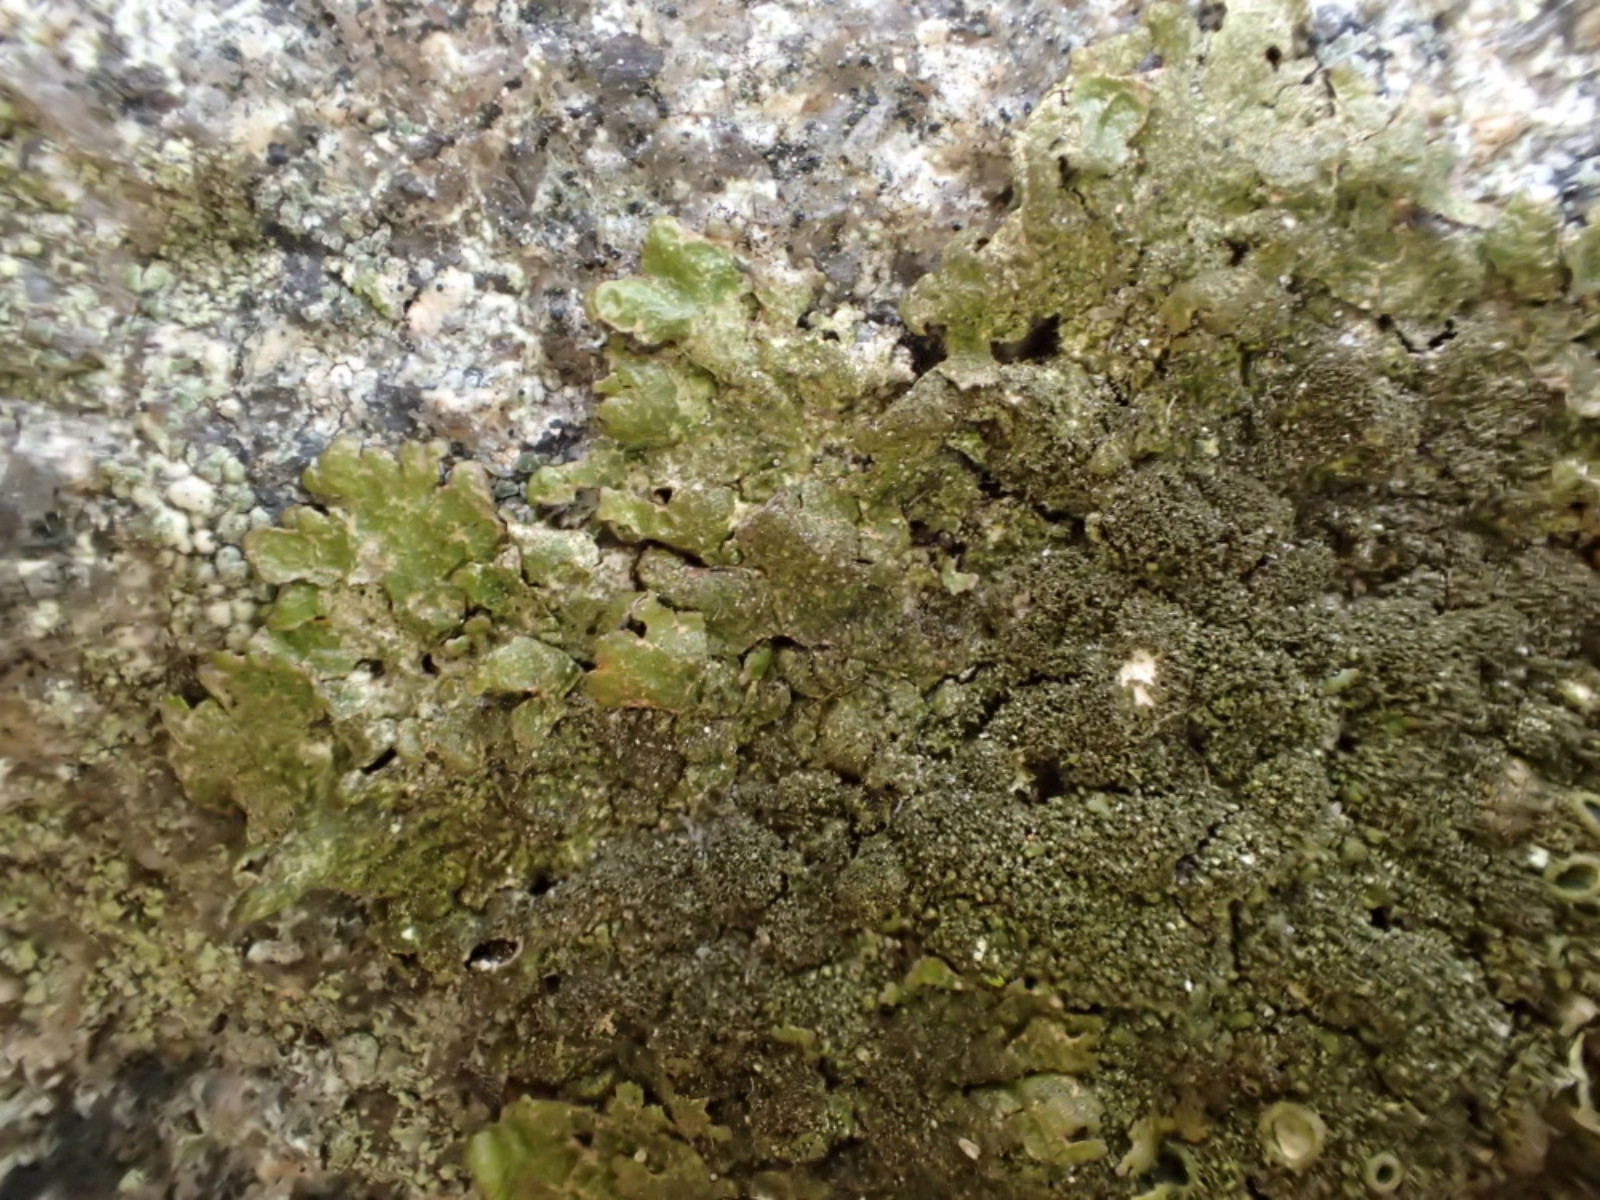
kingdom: Fungi
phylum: Ascomycota
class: Lecanoromycetes
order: Lecanorales
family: Parmeliaceae
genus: Melanelixia
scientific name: Melanelixia fuliginosa
